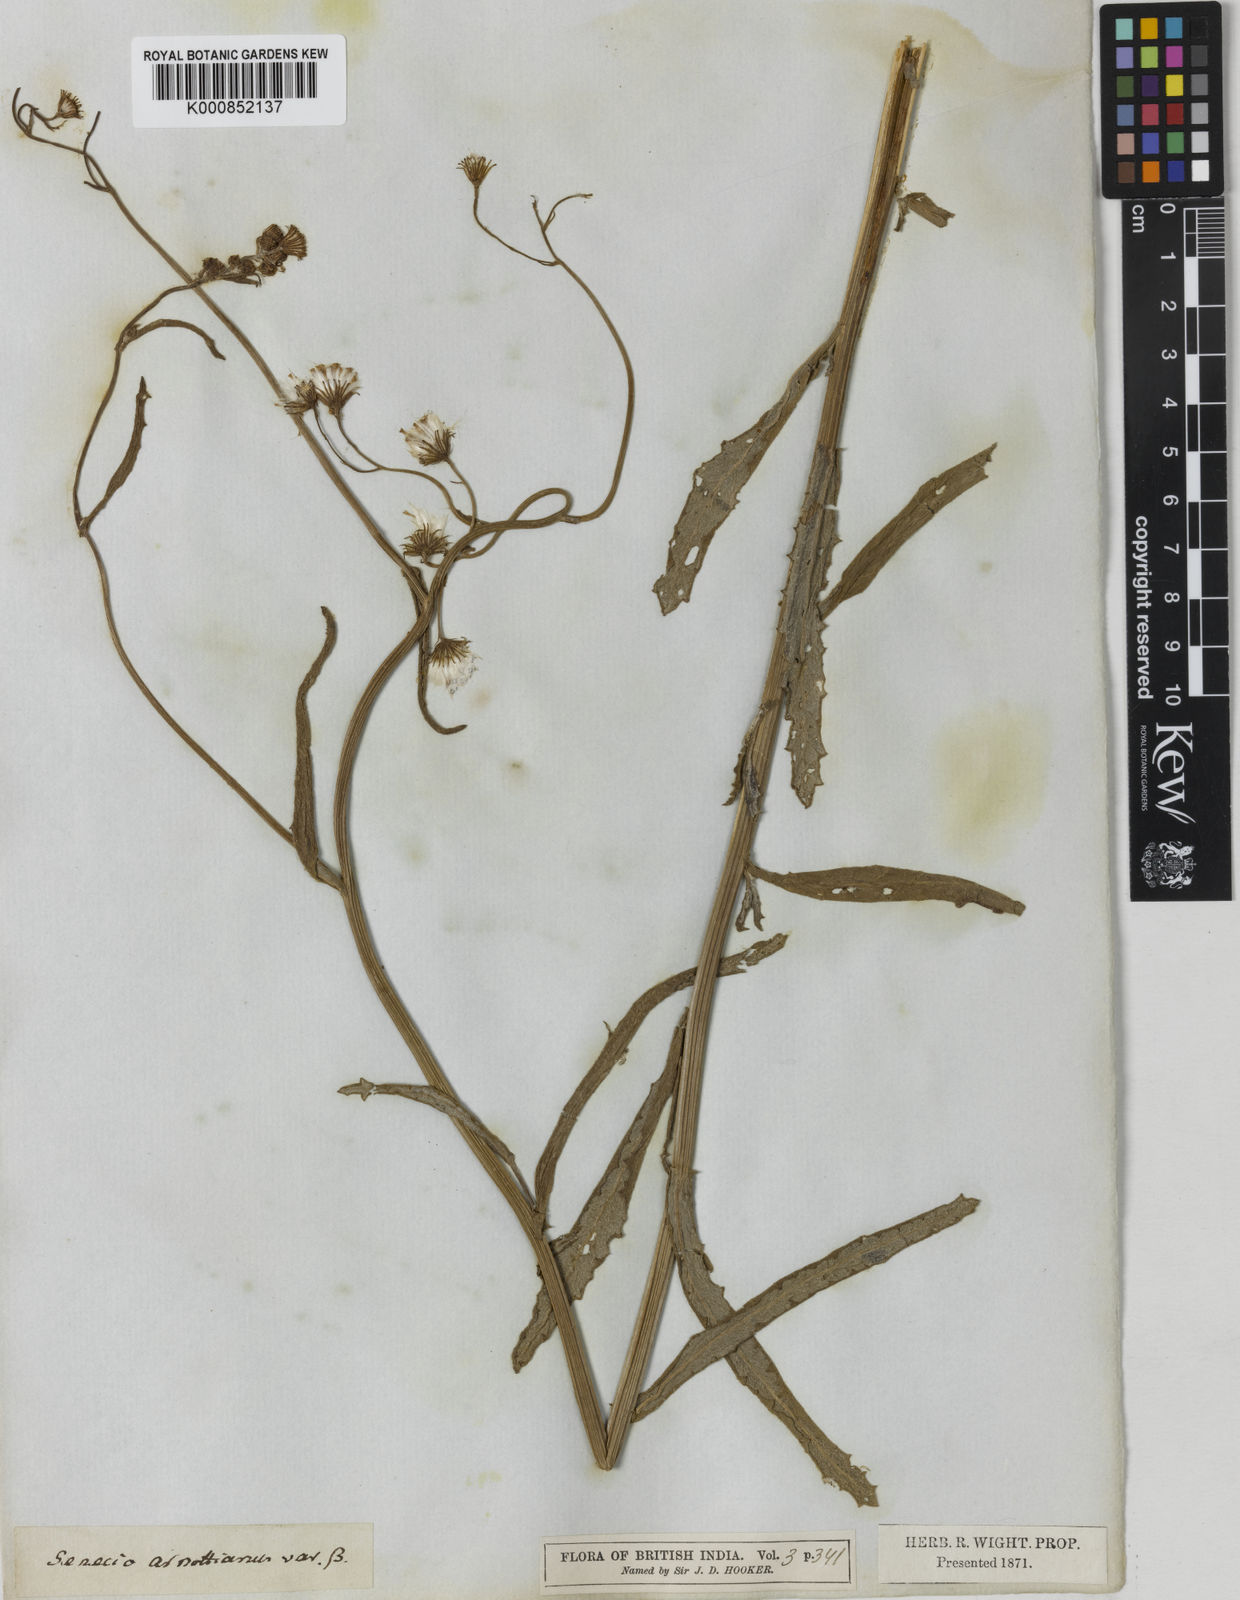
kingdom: Plantae
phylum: Tracheophyta
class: Magnoliopsida
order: Asterales
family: Asteraceae
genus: Senecio
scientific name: Senecio neelgherryanus
